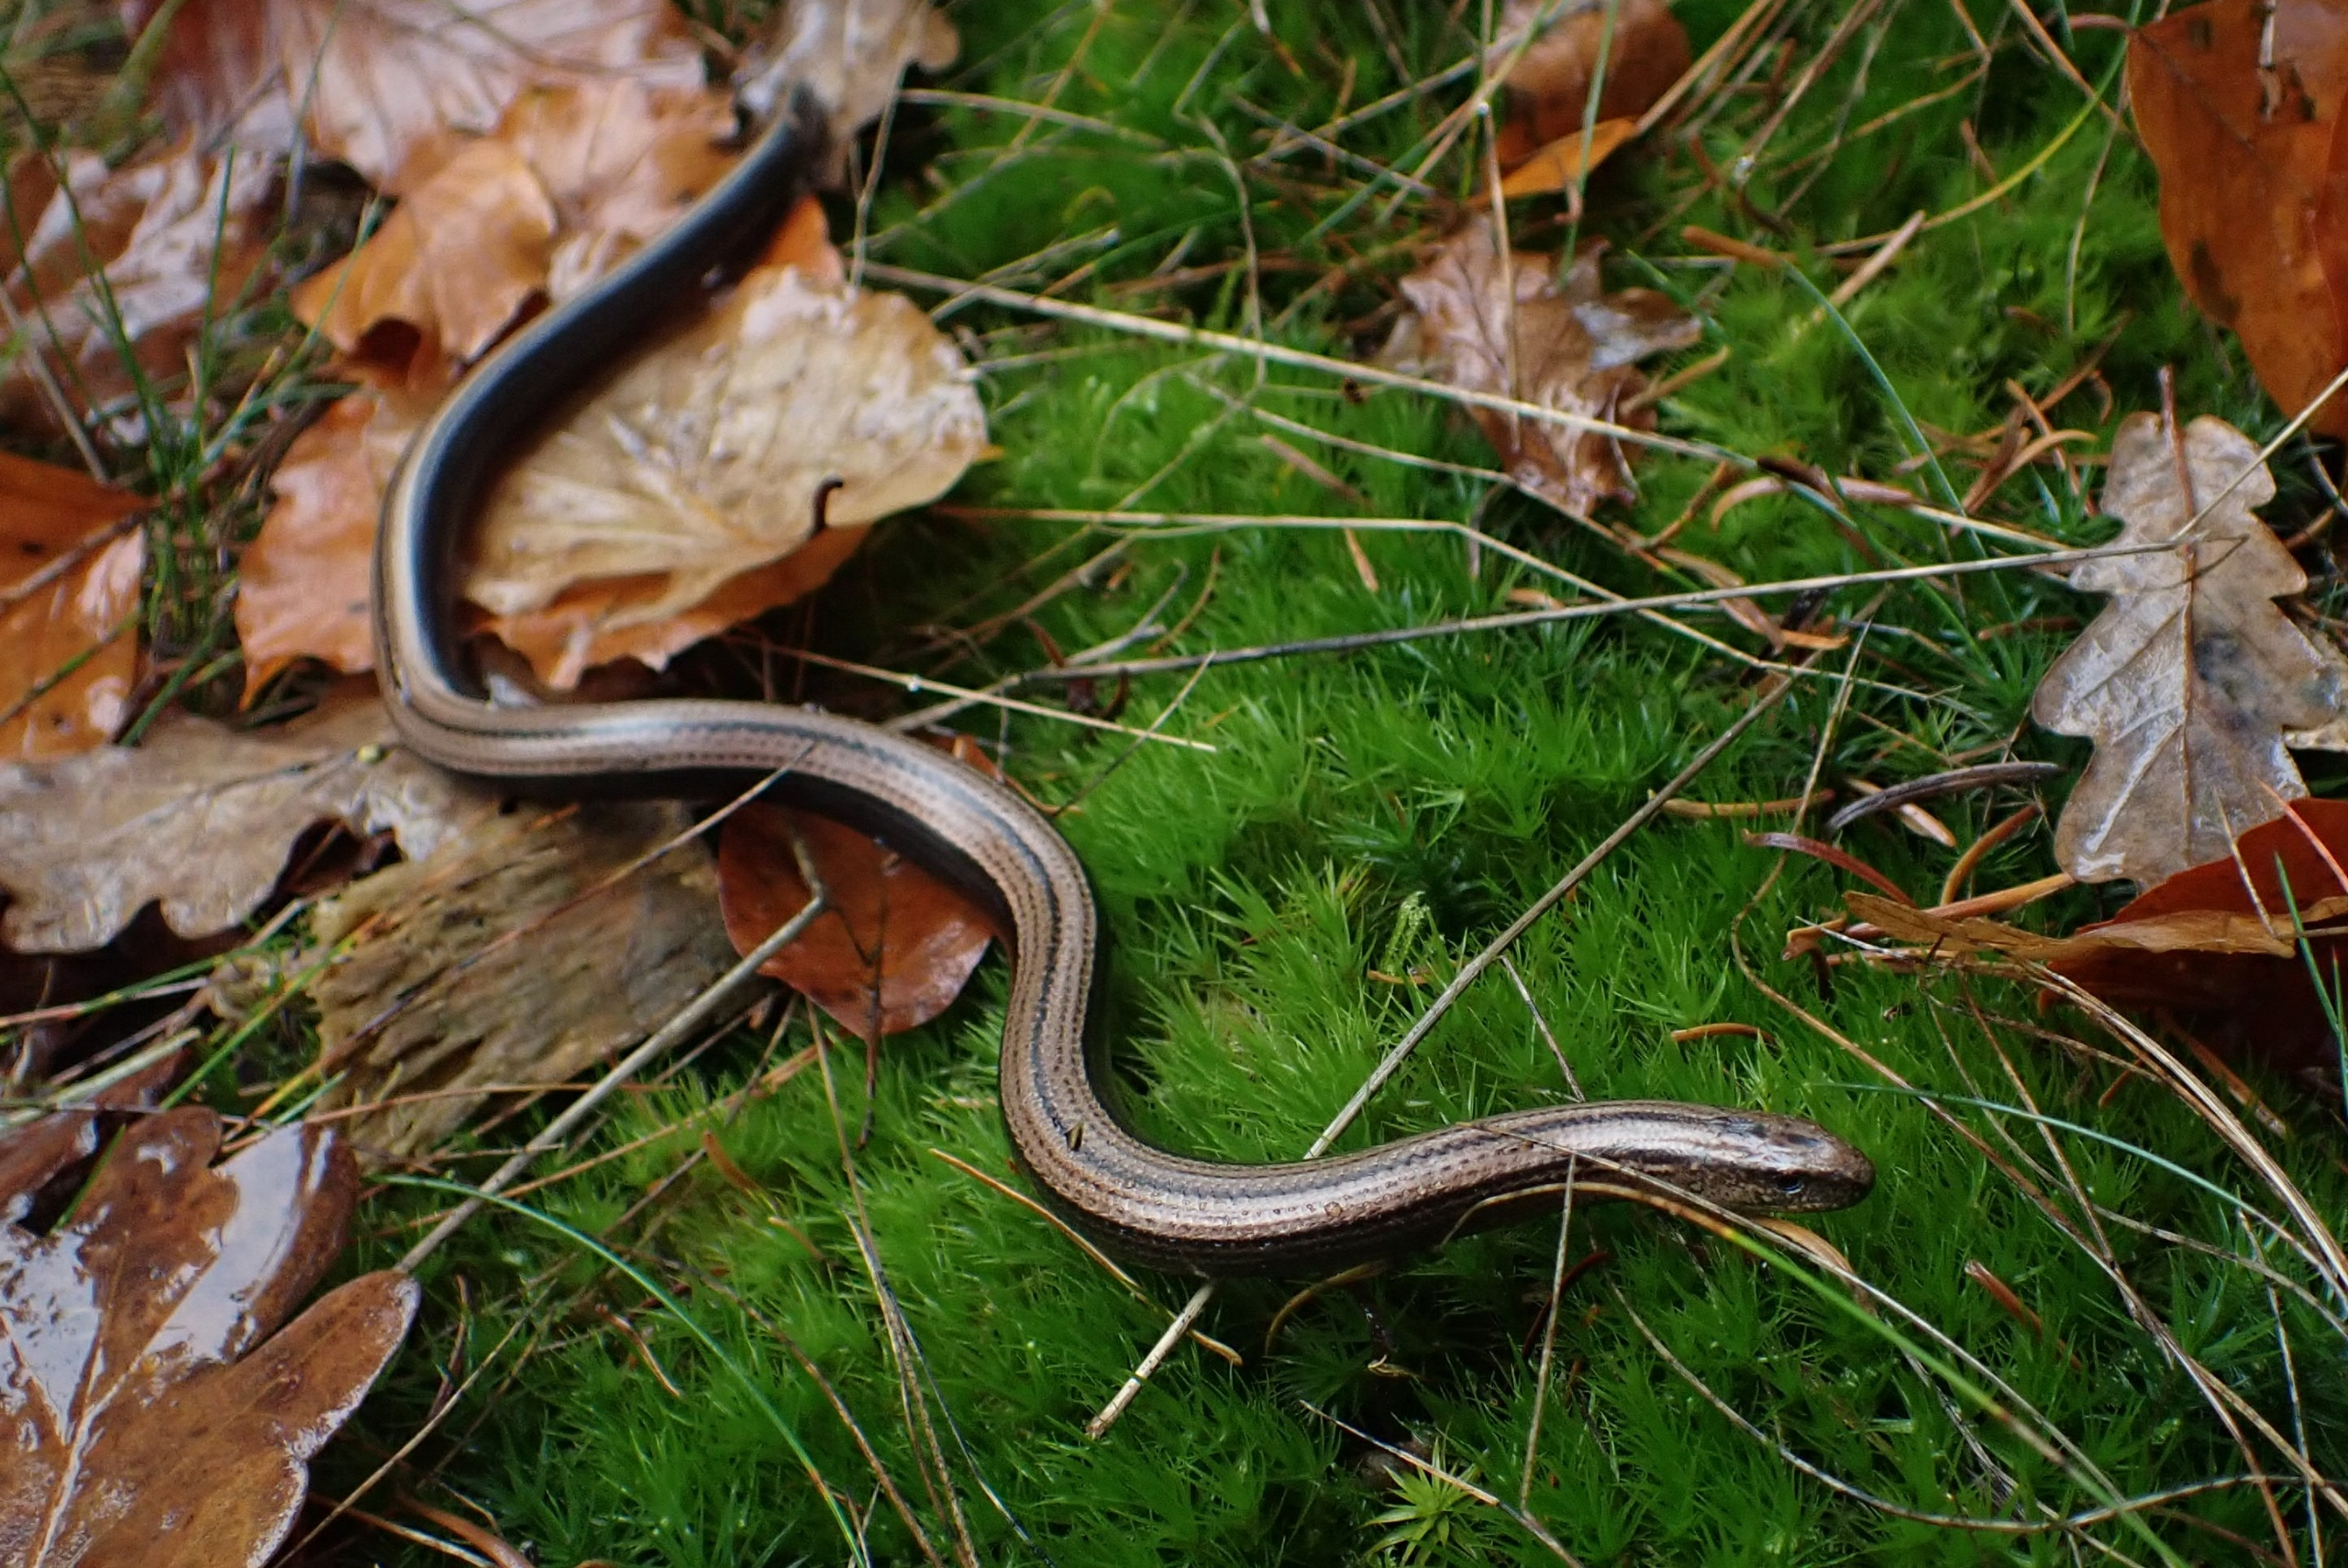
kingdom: Animalia
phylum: Chordata
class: Squamata
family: Anguidae
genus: Anguis
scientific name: Anguis fragilis
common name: Stålorm
